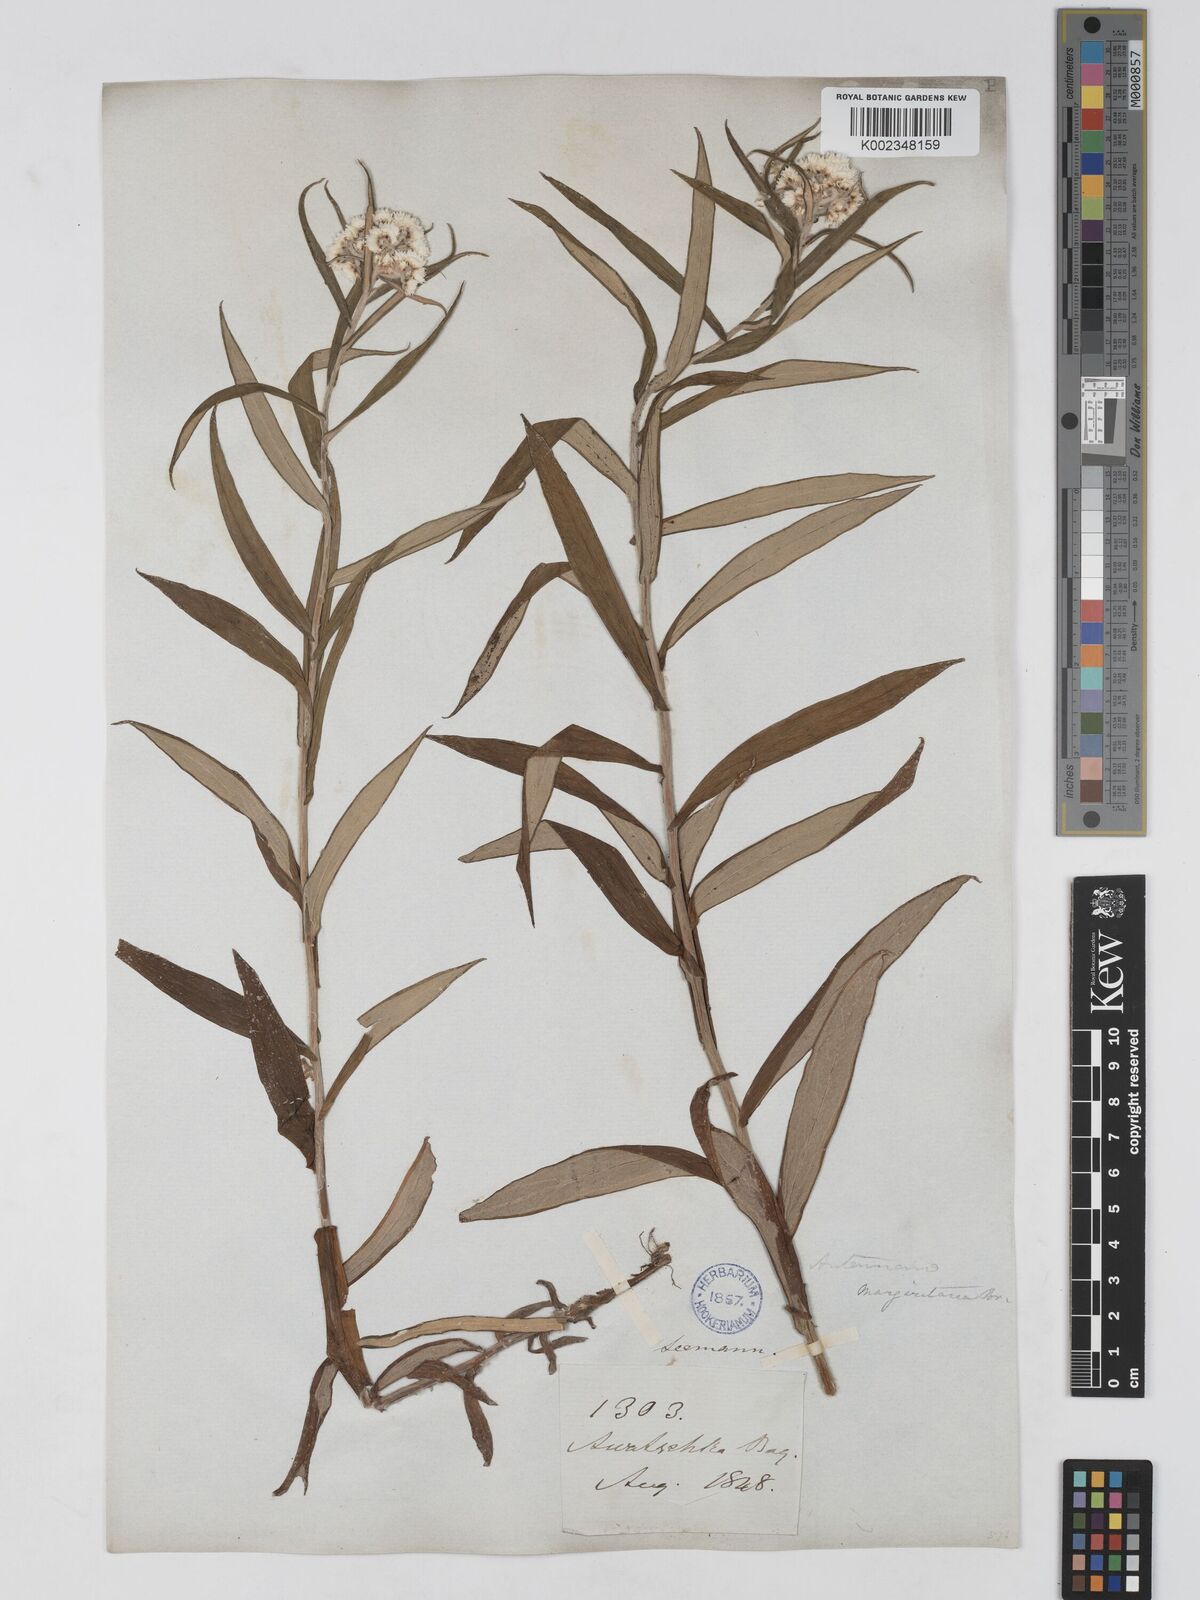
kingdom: Plantae
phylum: Tracheophyta
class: Magnoliopsida
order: Asterales
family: Asteraceae
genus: Anaphalis
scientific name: Anaphalis margaritacea
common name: Pearly everlasting
